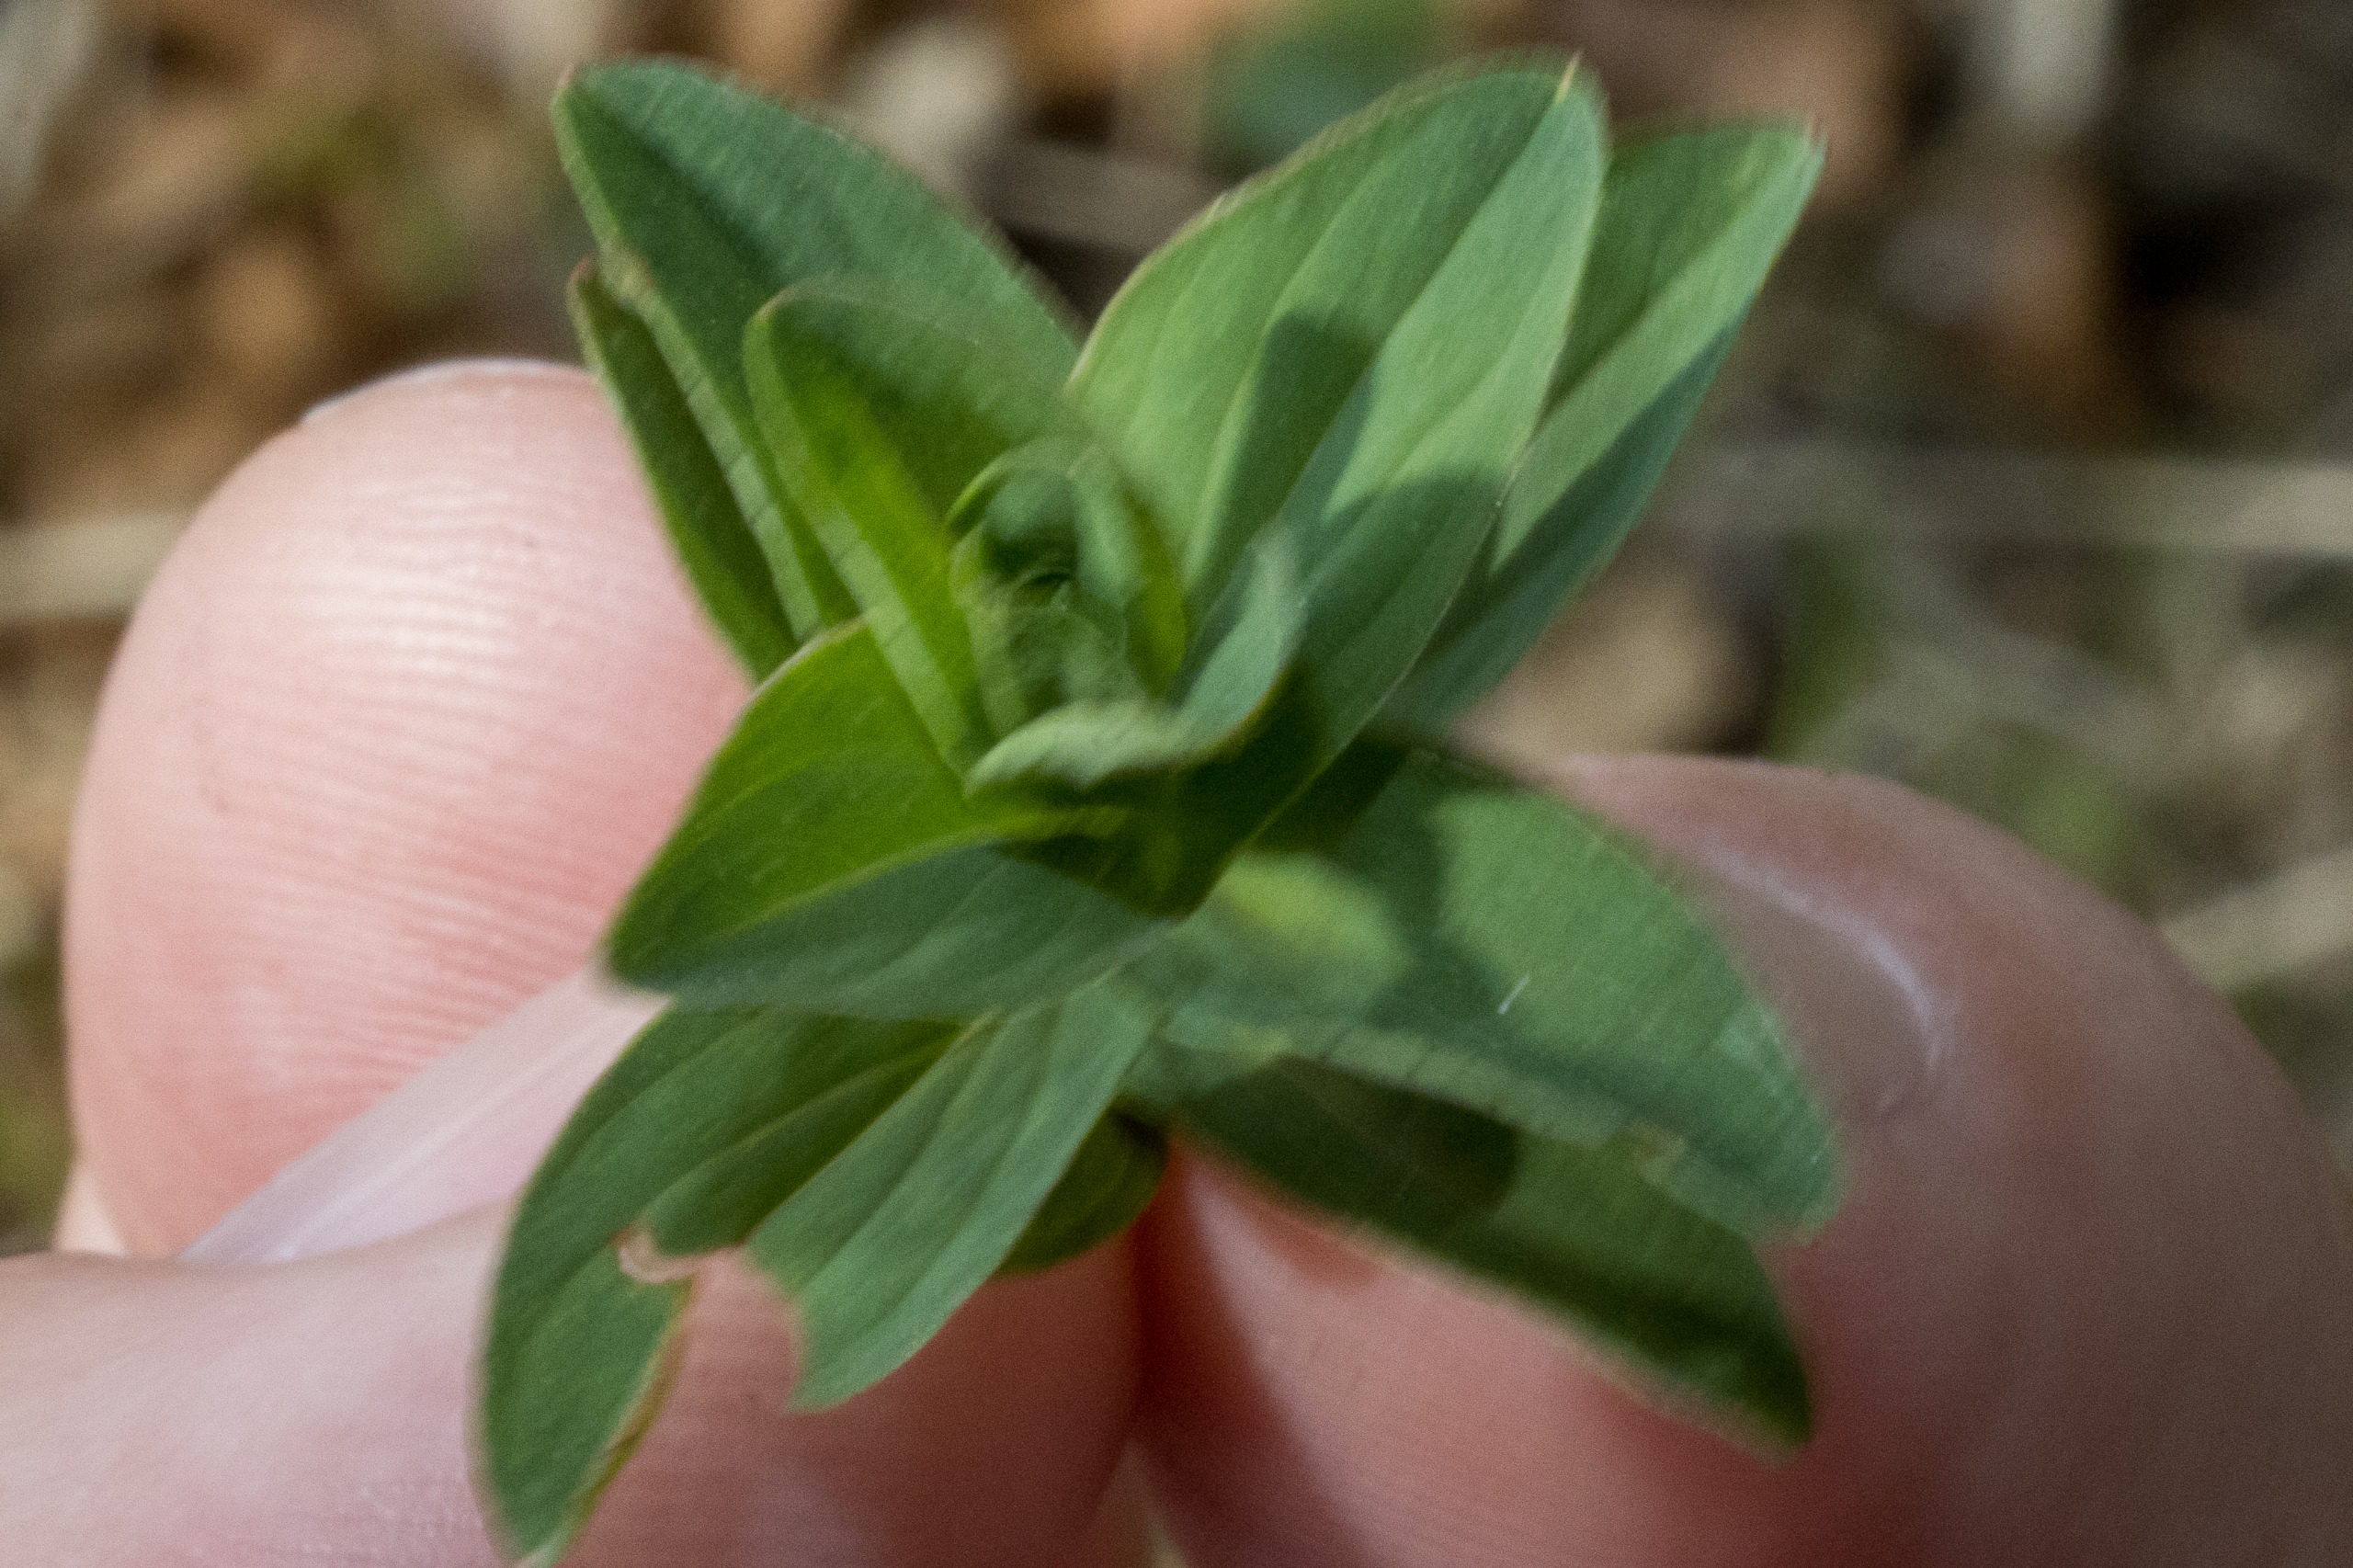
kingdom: Plantae
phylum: Tracheophyta
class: Magnoliopsida
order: Malpighiales
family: Hypericaceae
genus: Hypericum
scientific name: Hypericum maculatum
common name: Kantet perikon
